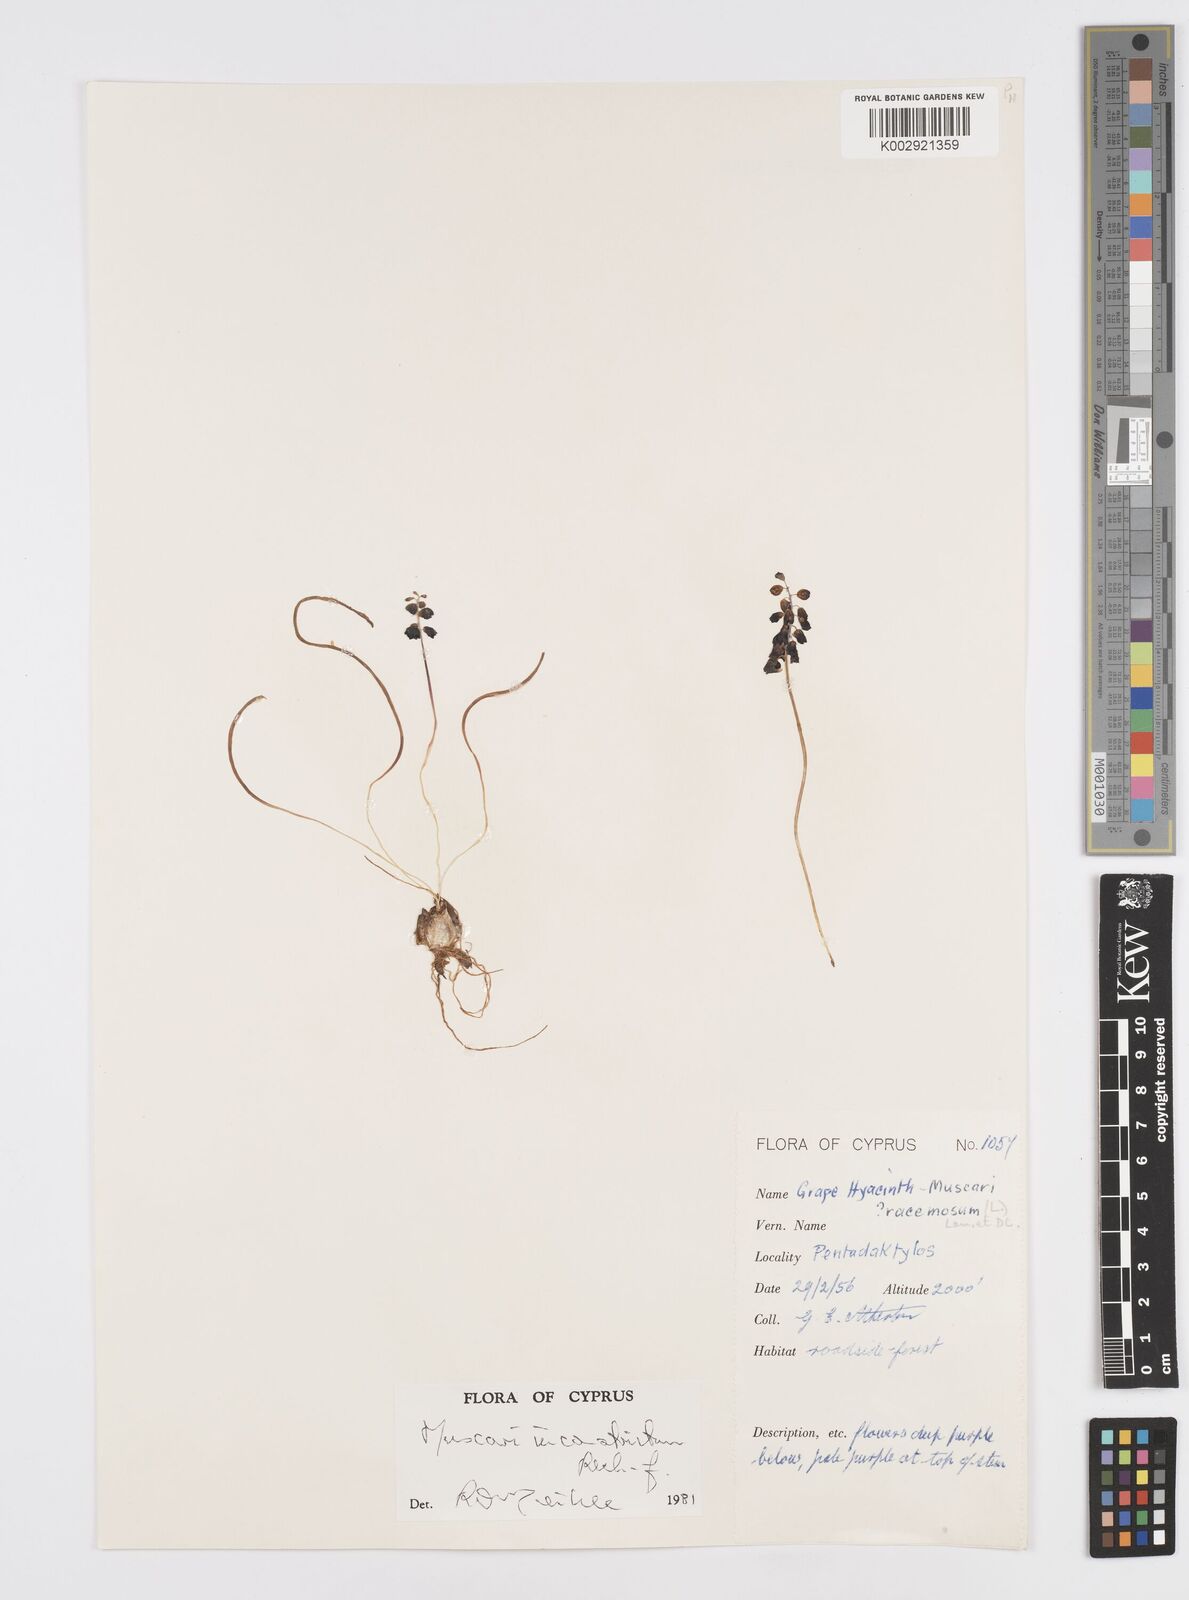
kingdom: Plantae
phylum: Tracheophyta
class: Liliopsida
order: Asparagales
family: Asparagaceae
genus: Muscari
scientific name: Muscari
